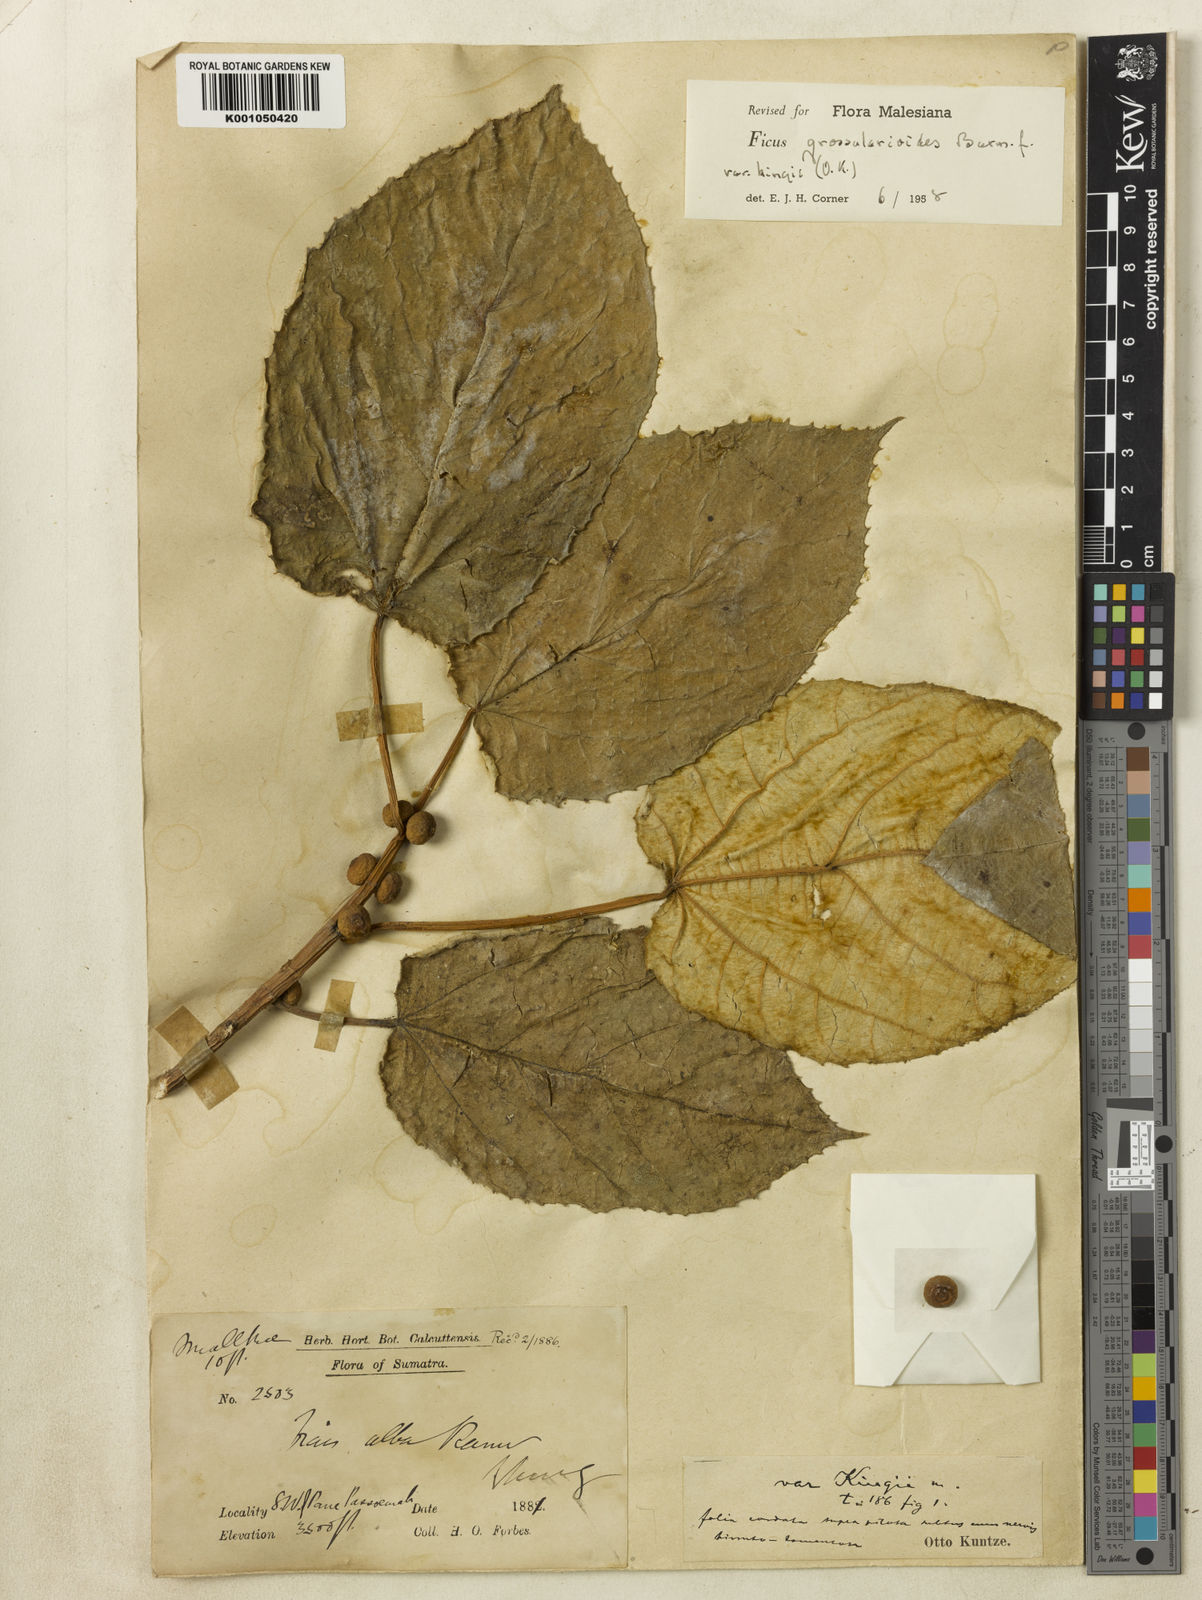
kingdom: Plantae
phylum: Tracheophyta
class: Magnoliopsida
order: Rosales
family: Moraceae
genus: Ficus
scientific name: Ficus grossularioides
